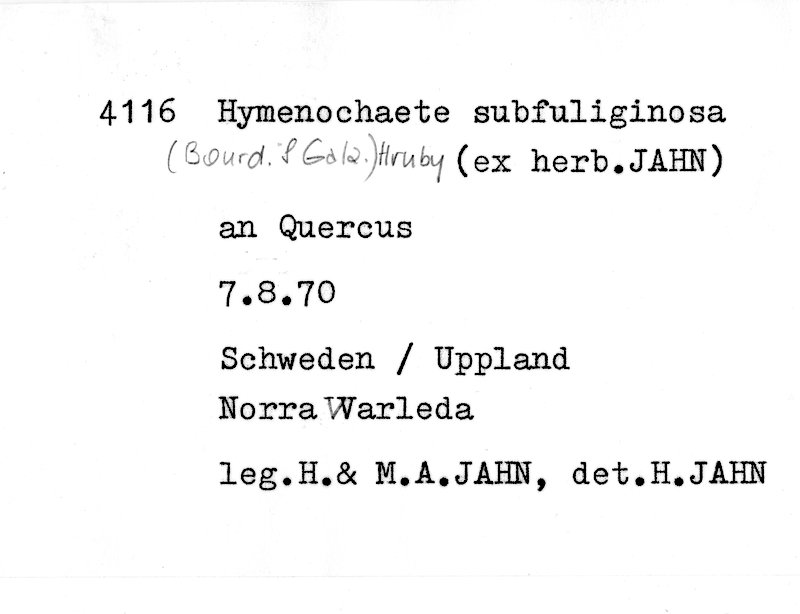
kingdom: Plantae
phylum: Tracheophyta
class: Magnoliopsida
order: Fagales
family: Fagaceae
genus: Quercus
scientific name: Quercus
